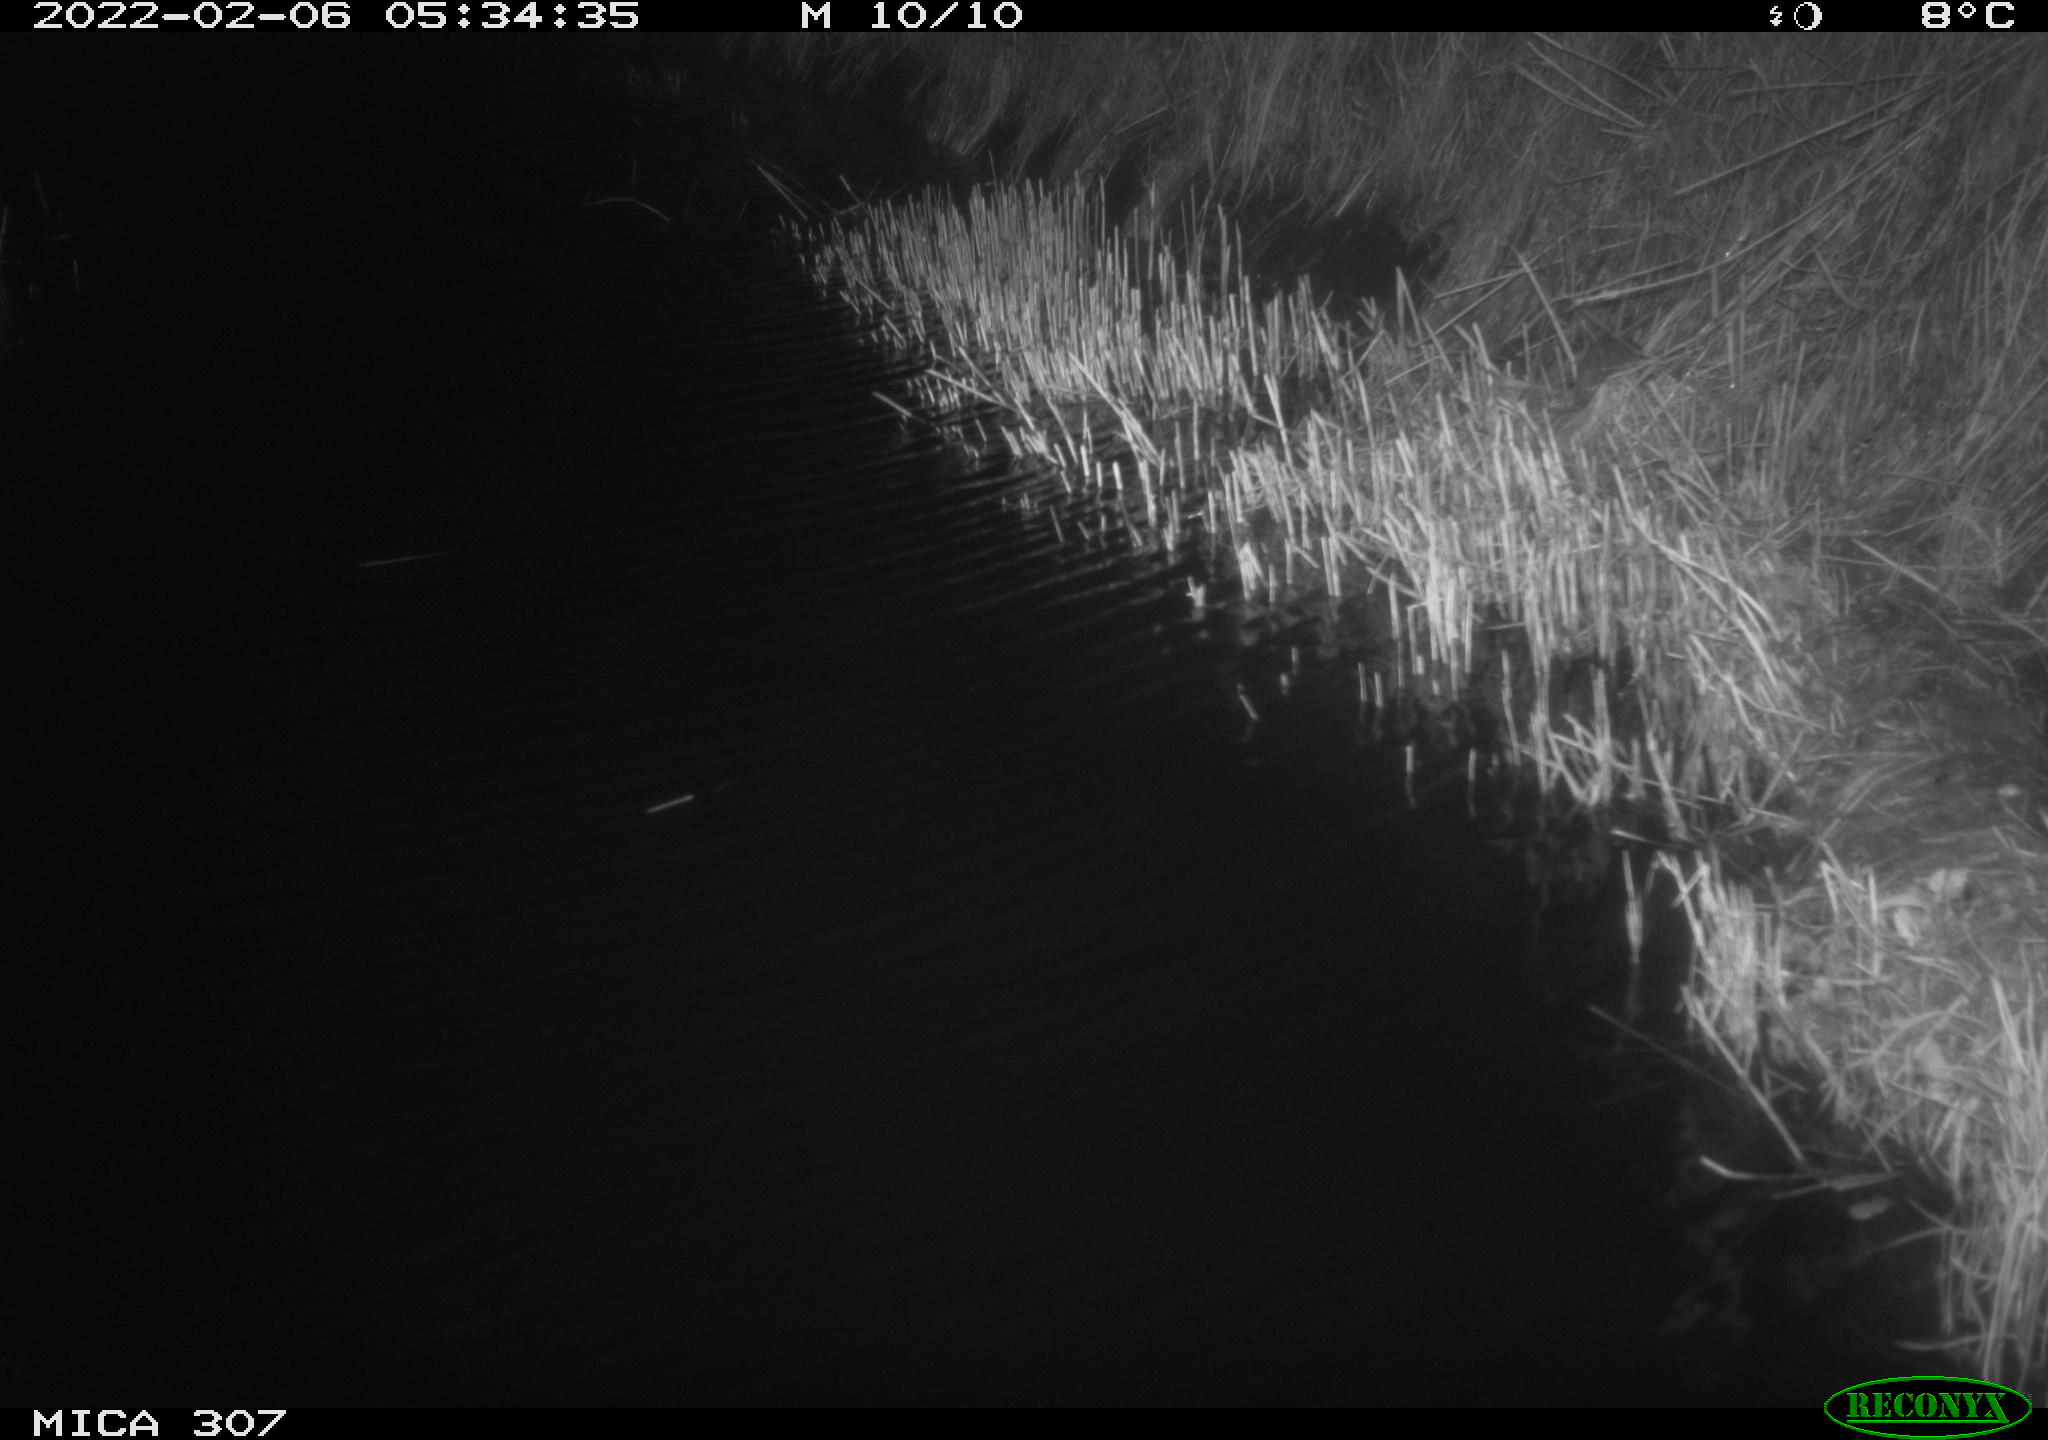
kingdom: Animalia
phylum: Chordata
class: Mammalia
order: Rodentia
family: Muridae
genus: Rattus
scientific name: Rattus norvegicus
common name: Brown rat
